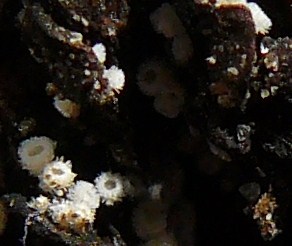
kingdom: Fungi
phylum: Ascomycota
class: Leotiomycetes
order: Helotiales
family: Lachnaceae
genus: Lachnum
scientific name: Lachnum virgineum
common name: jomfru-frynseskive
